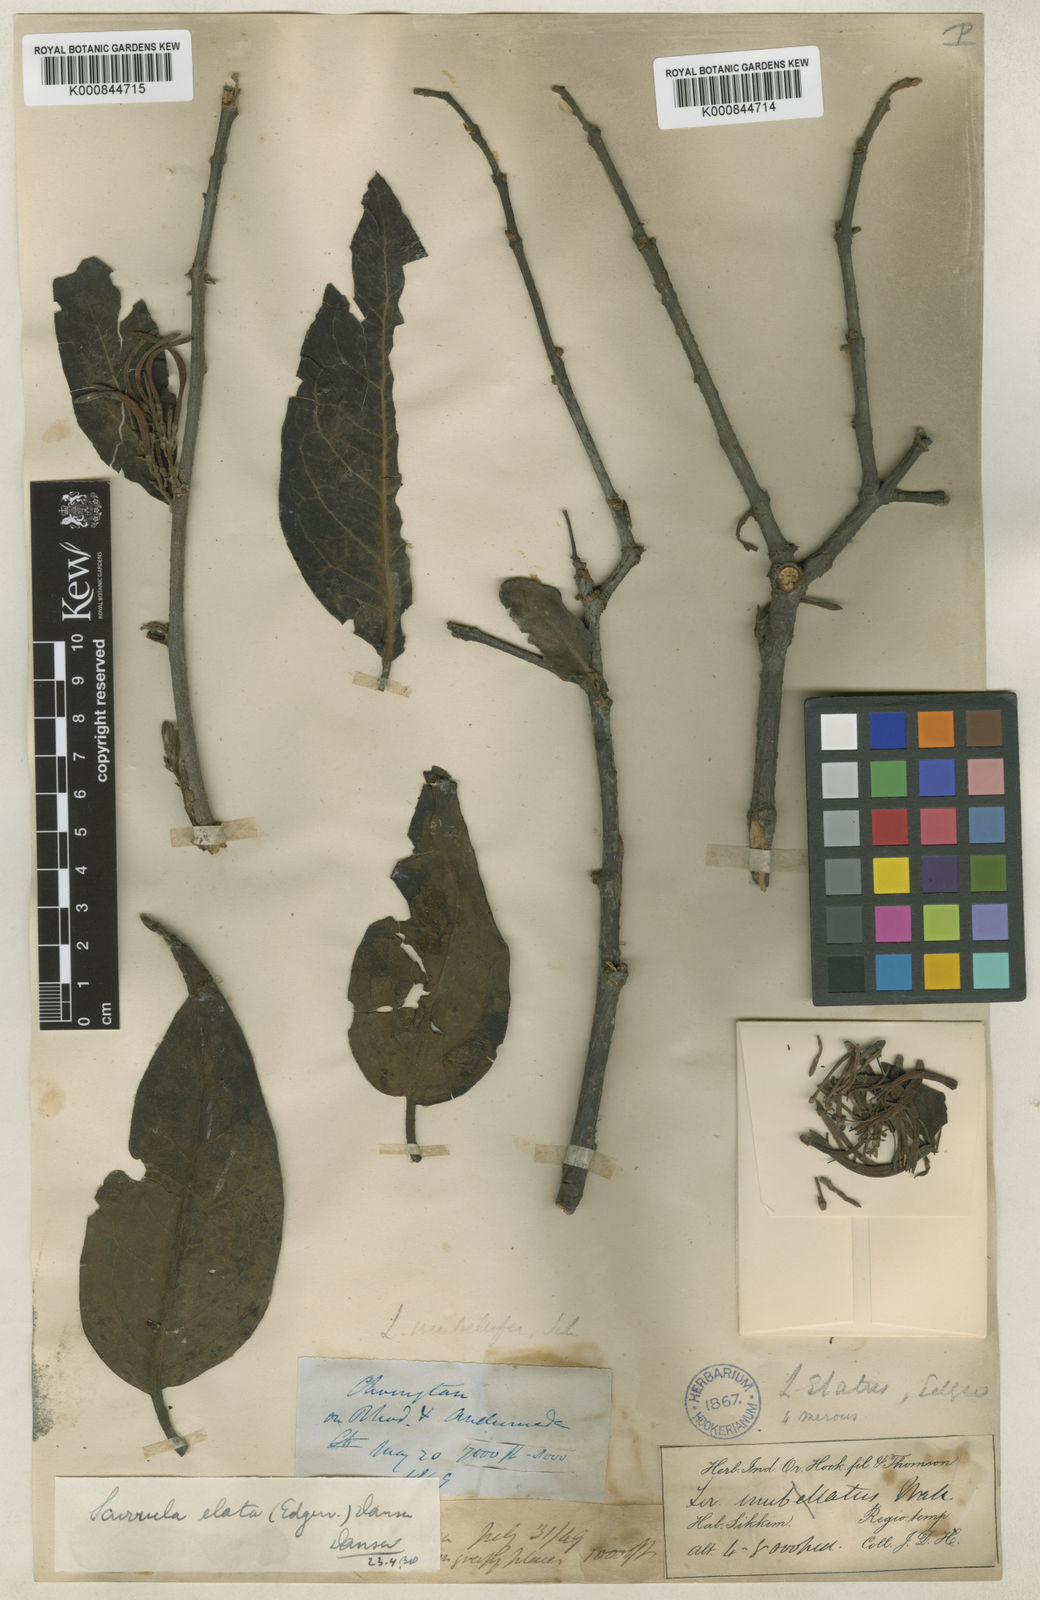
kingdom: Plantae
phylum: Tracheophyta
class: Magnoliopsida
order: Santalales
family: Loranthaceae
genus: Scurrula
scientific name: Scurrula elata
